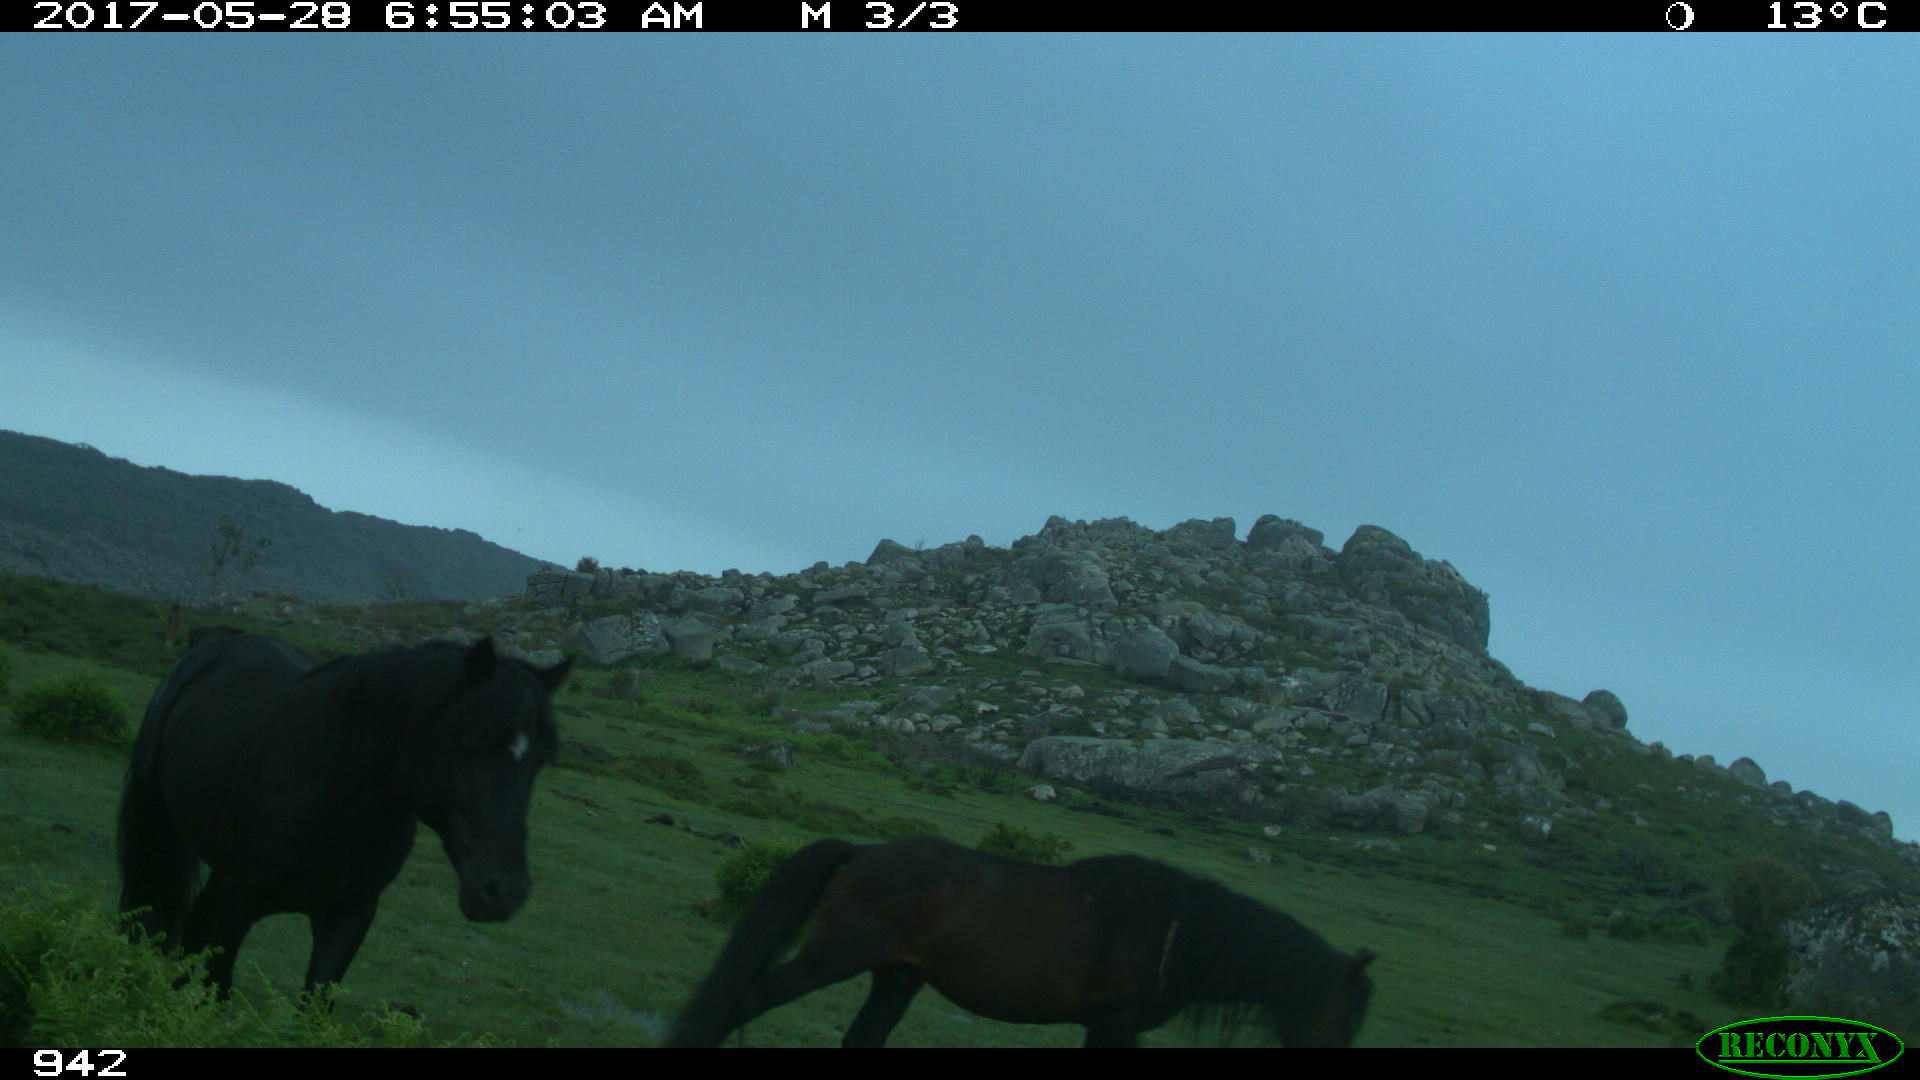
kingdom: Animalia
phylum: Chordata
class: Mammalia
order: Perissodactyla
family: Equidae
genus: Equus
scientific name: Equus caballus
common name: Horse
